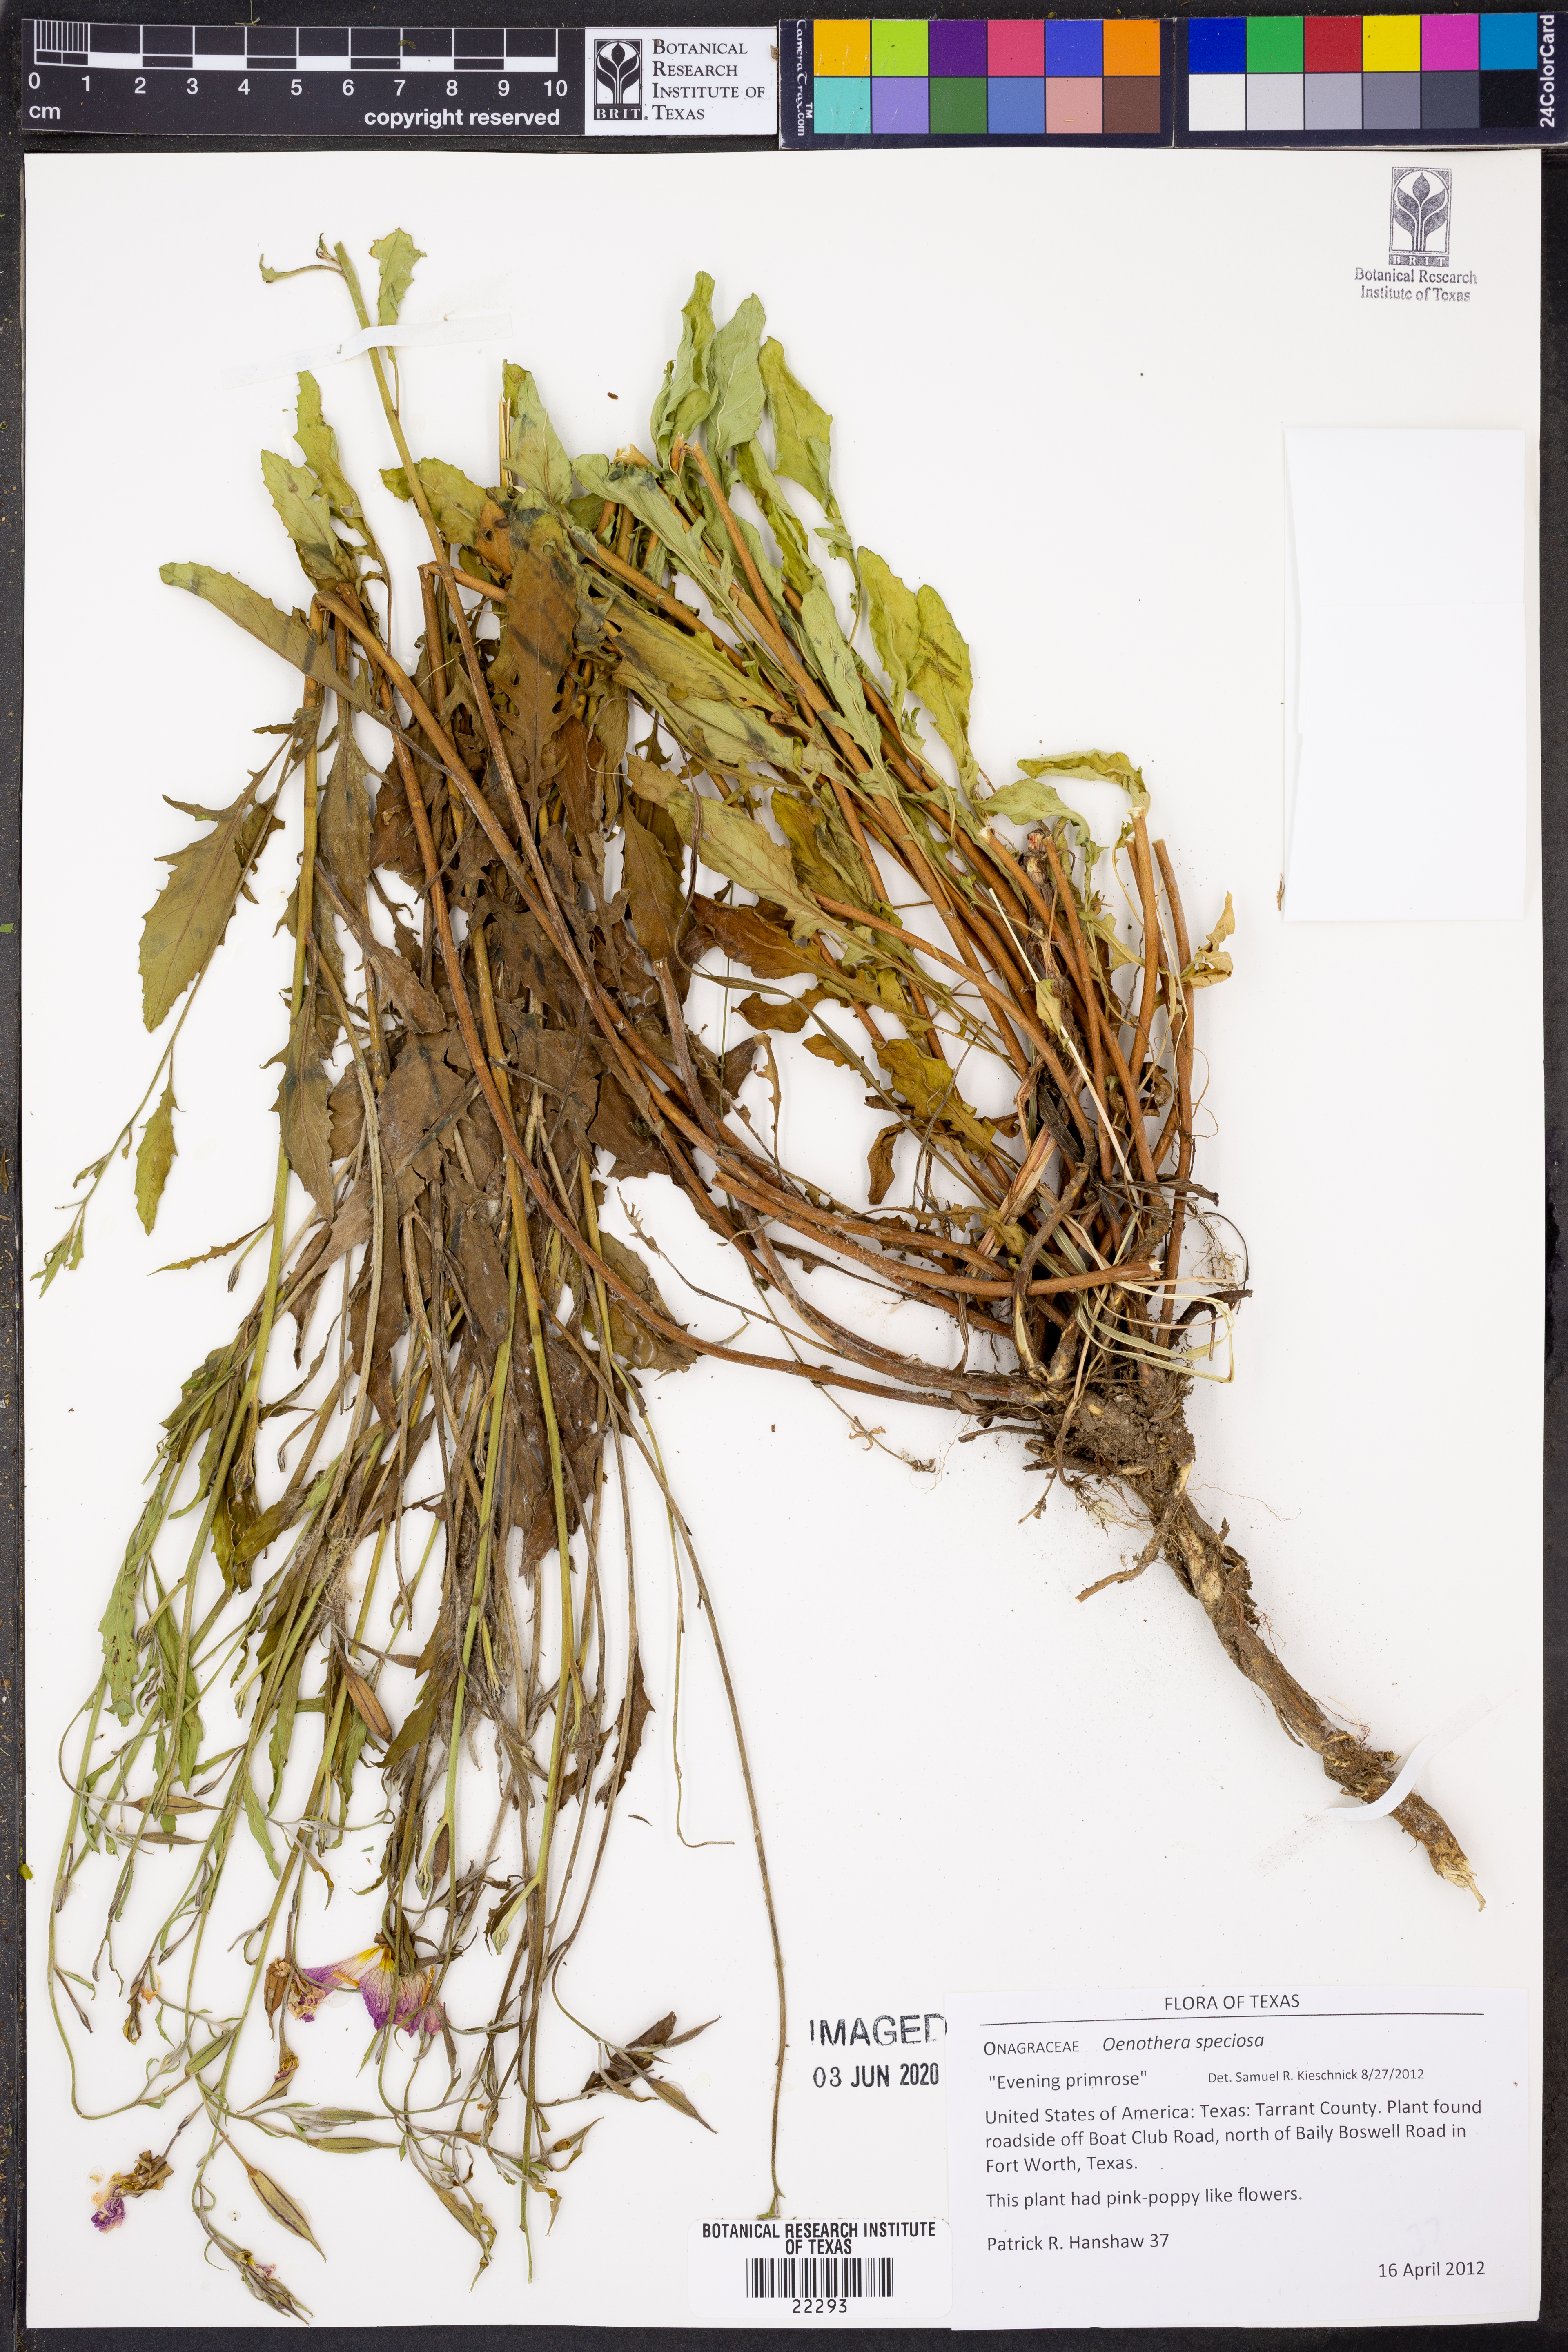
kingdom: Plantae
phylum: Tracheophyta
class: Magnoliopsida
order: Myrtales
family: Onagraceae
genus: Oenothera
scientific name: Oenothera speciosa
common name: White evening-primrose
